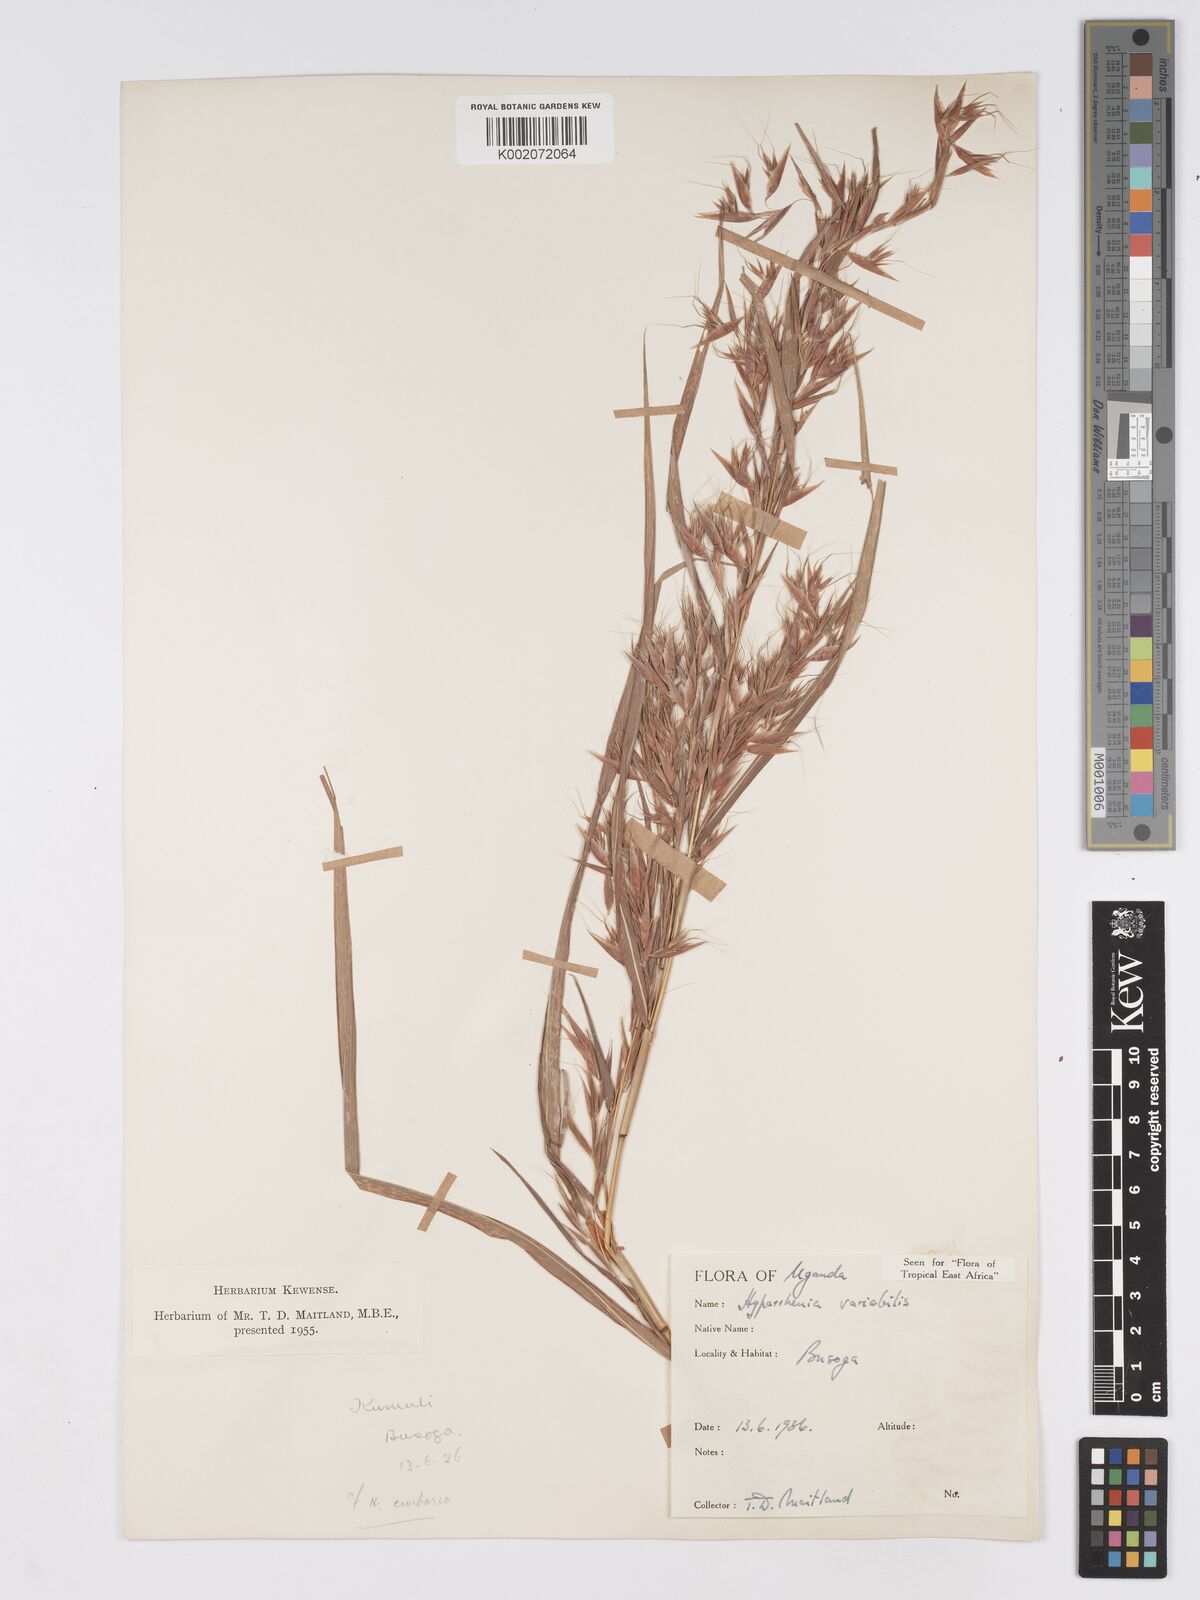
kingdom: Plantae
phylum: Tracheophyta
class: Liliopsida
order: Poales
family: Poaceae
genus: Hyparrhenia
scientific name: Hyparrhenia variabilis
